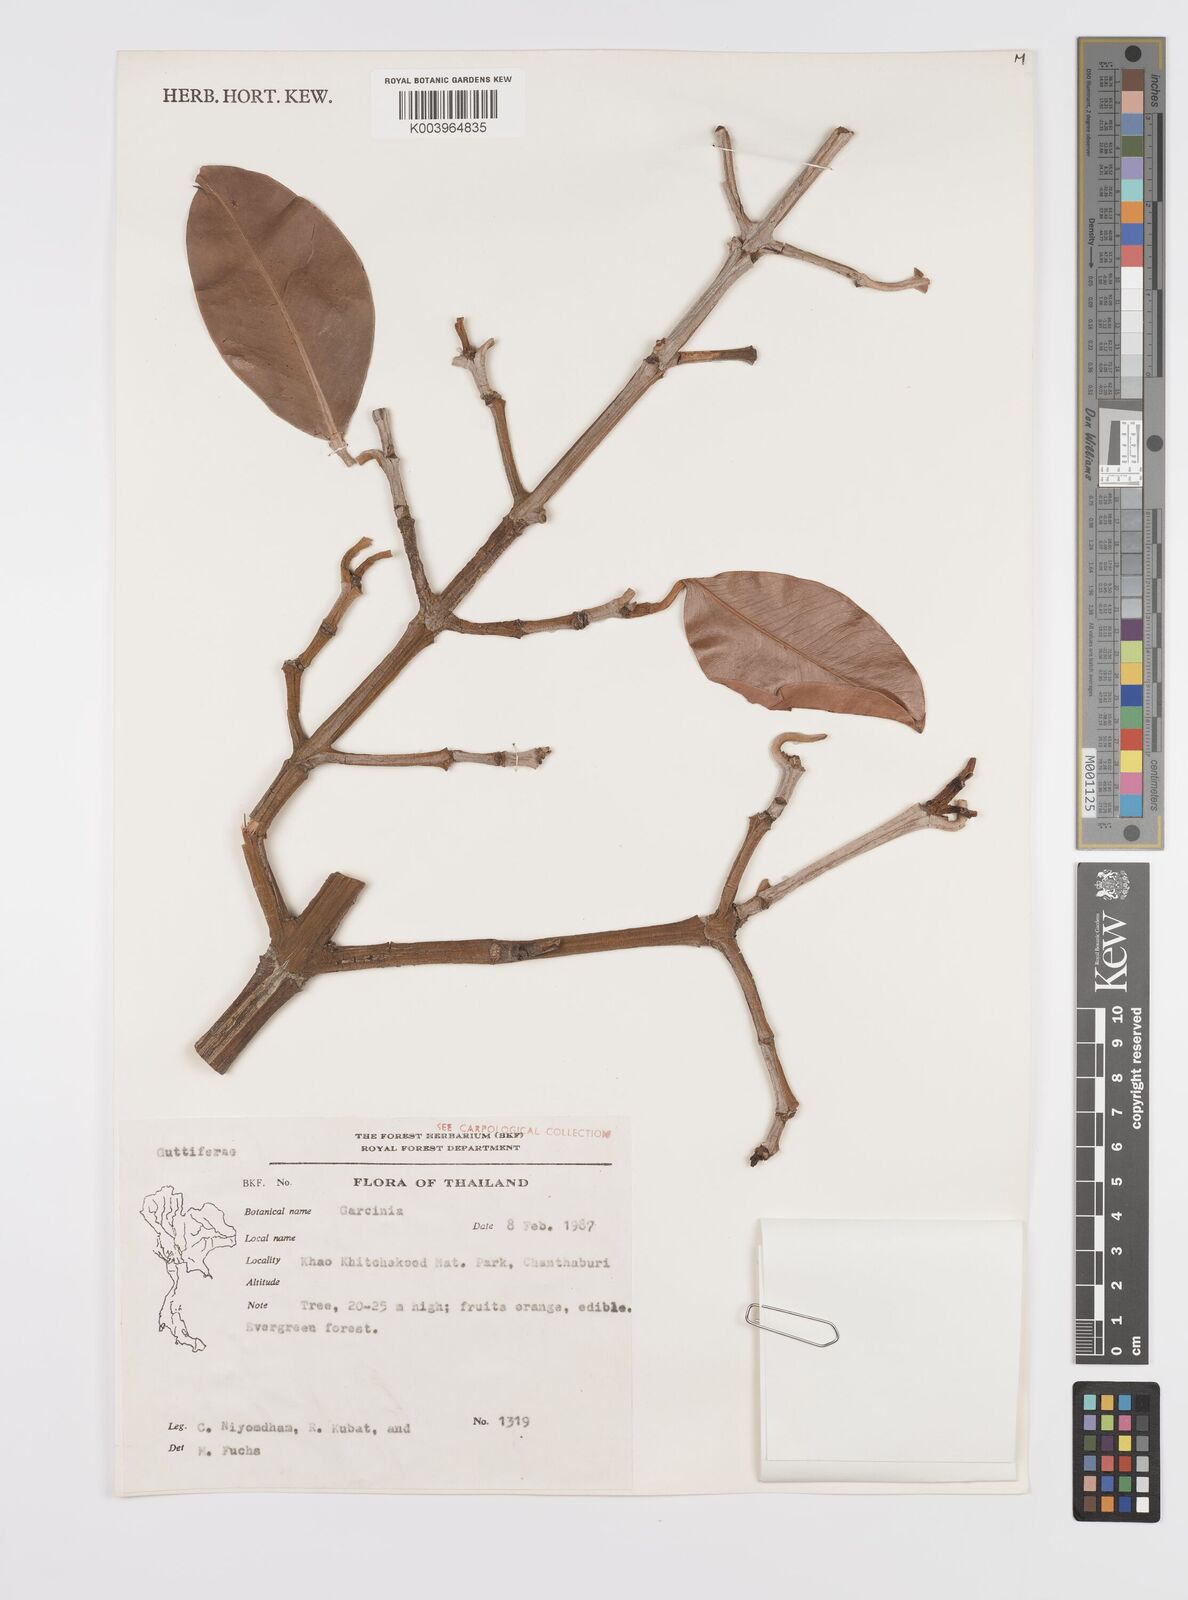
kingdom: Plantae
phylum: Tracheophyta
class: Magnoliopsida
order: Malpighiales
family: Clusiaceae
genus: Garcinia
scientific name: Garcinia
